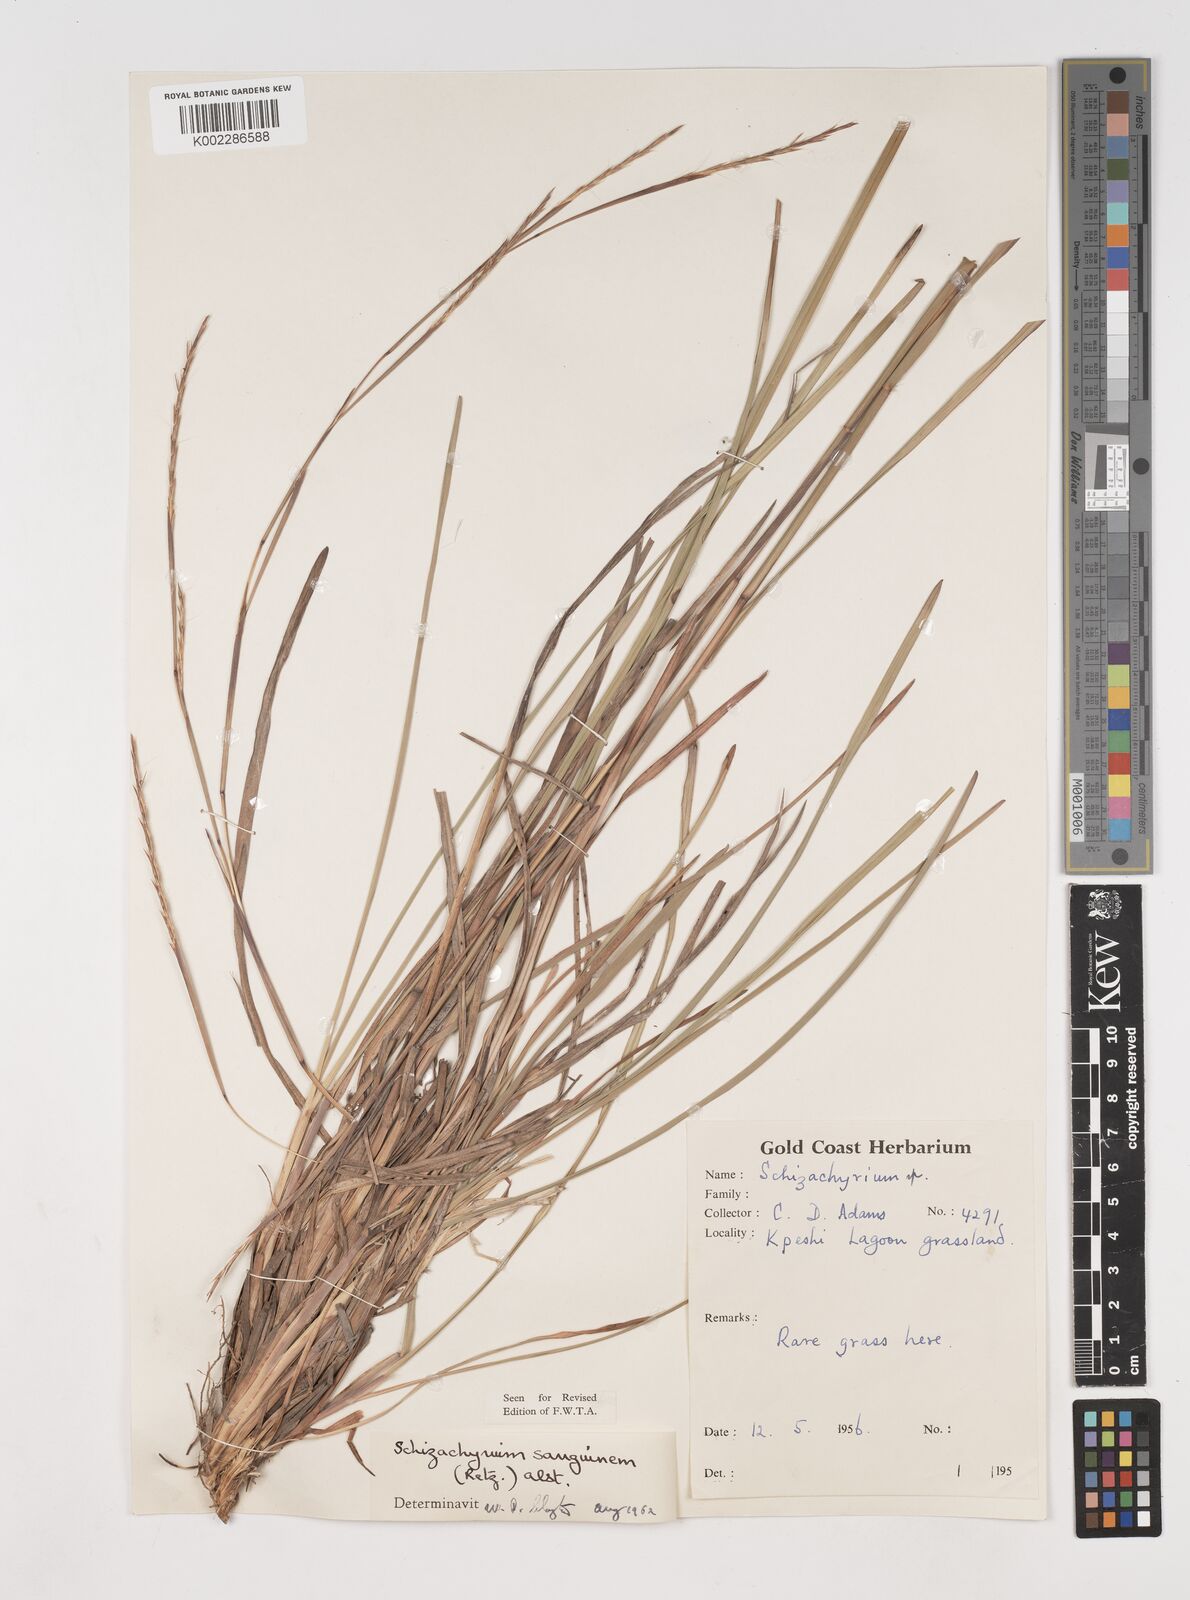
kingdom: Plantae
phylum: Tracheophyta
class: Liliopsida
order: Poales
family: Poaceae
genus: Schizachyrium
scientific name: Schizachyrium sanguineum
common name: Crimson bluestem
